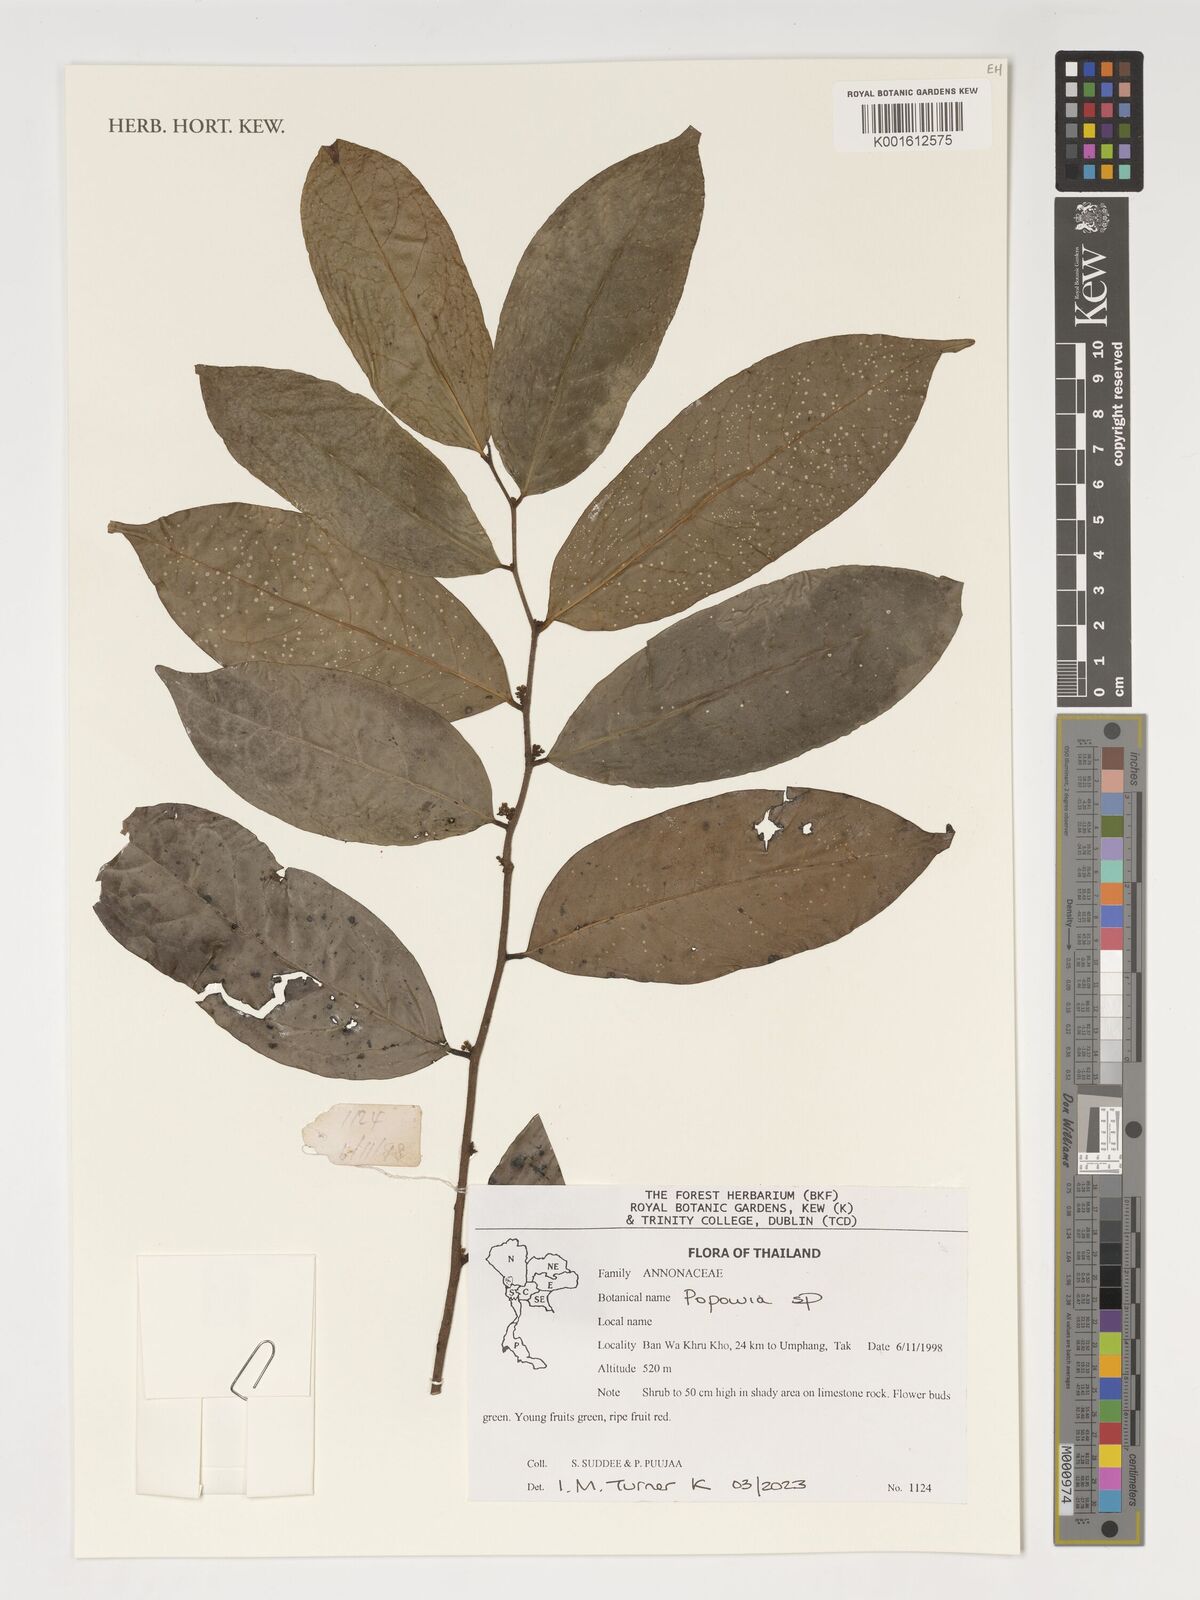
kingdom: Plantae
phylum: Tracheophyta
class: Magnoliopsida
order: Magnoliales
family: Annonaceae
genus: Popowia
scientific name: Popowia
